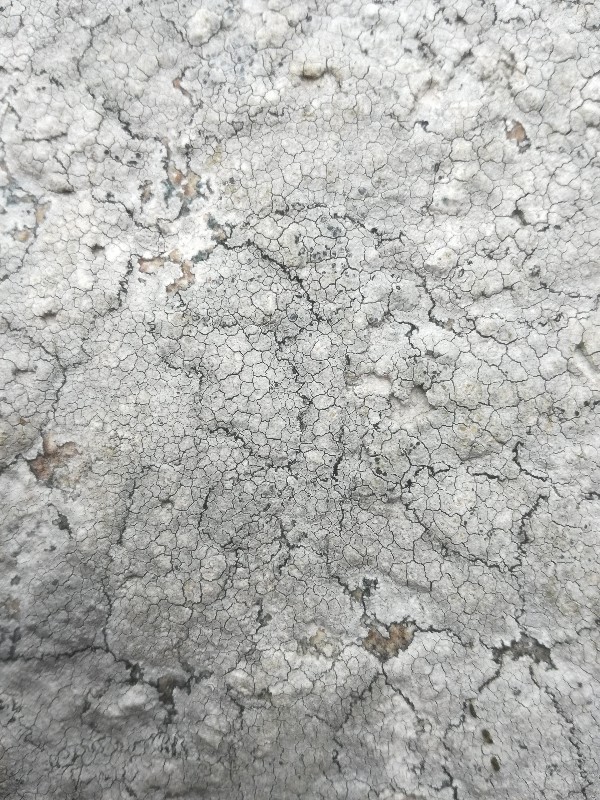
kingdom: Fungi
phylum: Ascomycota
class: Lecanoromycetes
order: Lecanorales
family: Lecanoraceae
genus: Glaucomaria
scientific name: Glaucomaria rupicola
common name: stengærde-kantskivelav
